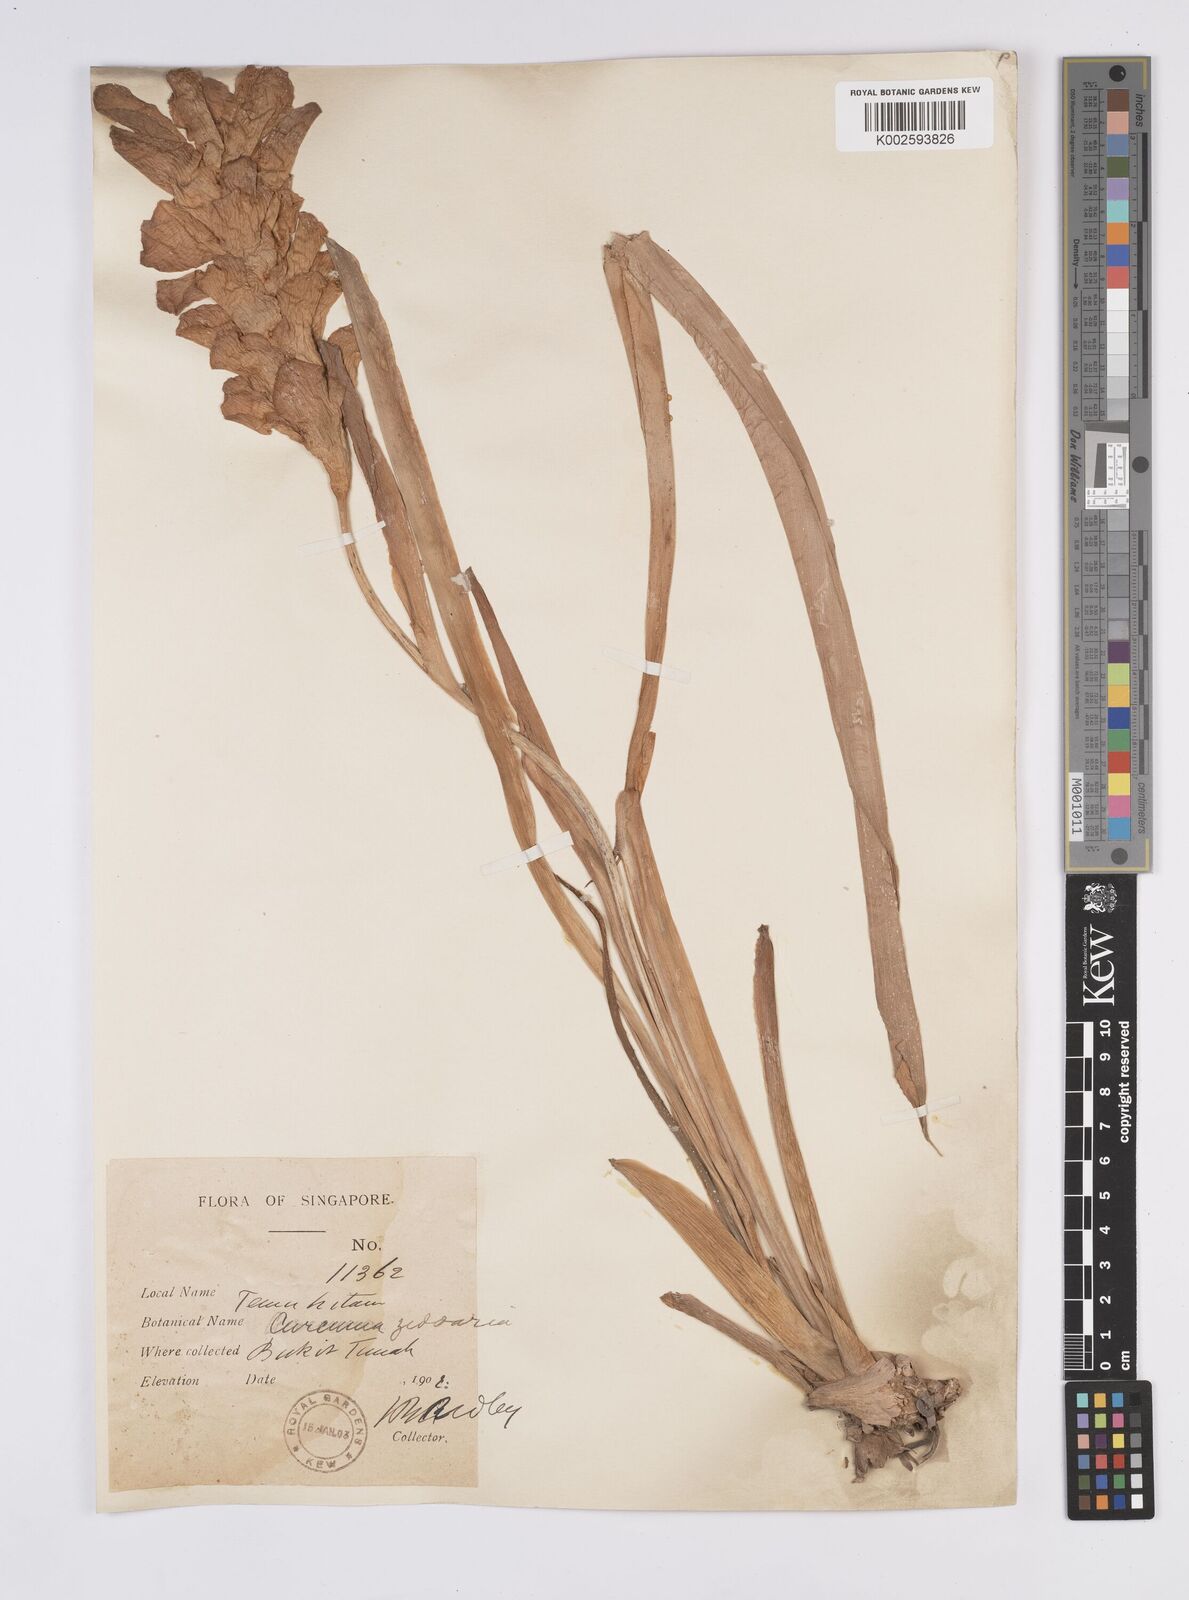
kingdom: Plantae
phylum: Tracheophyta
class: Liliopsida
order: Zingiberales
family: Zingiberaceae
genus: Curcuma
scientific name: Curcuma aromatica
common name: Wild turmeric
